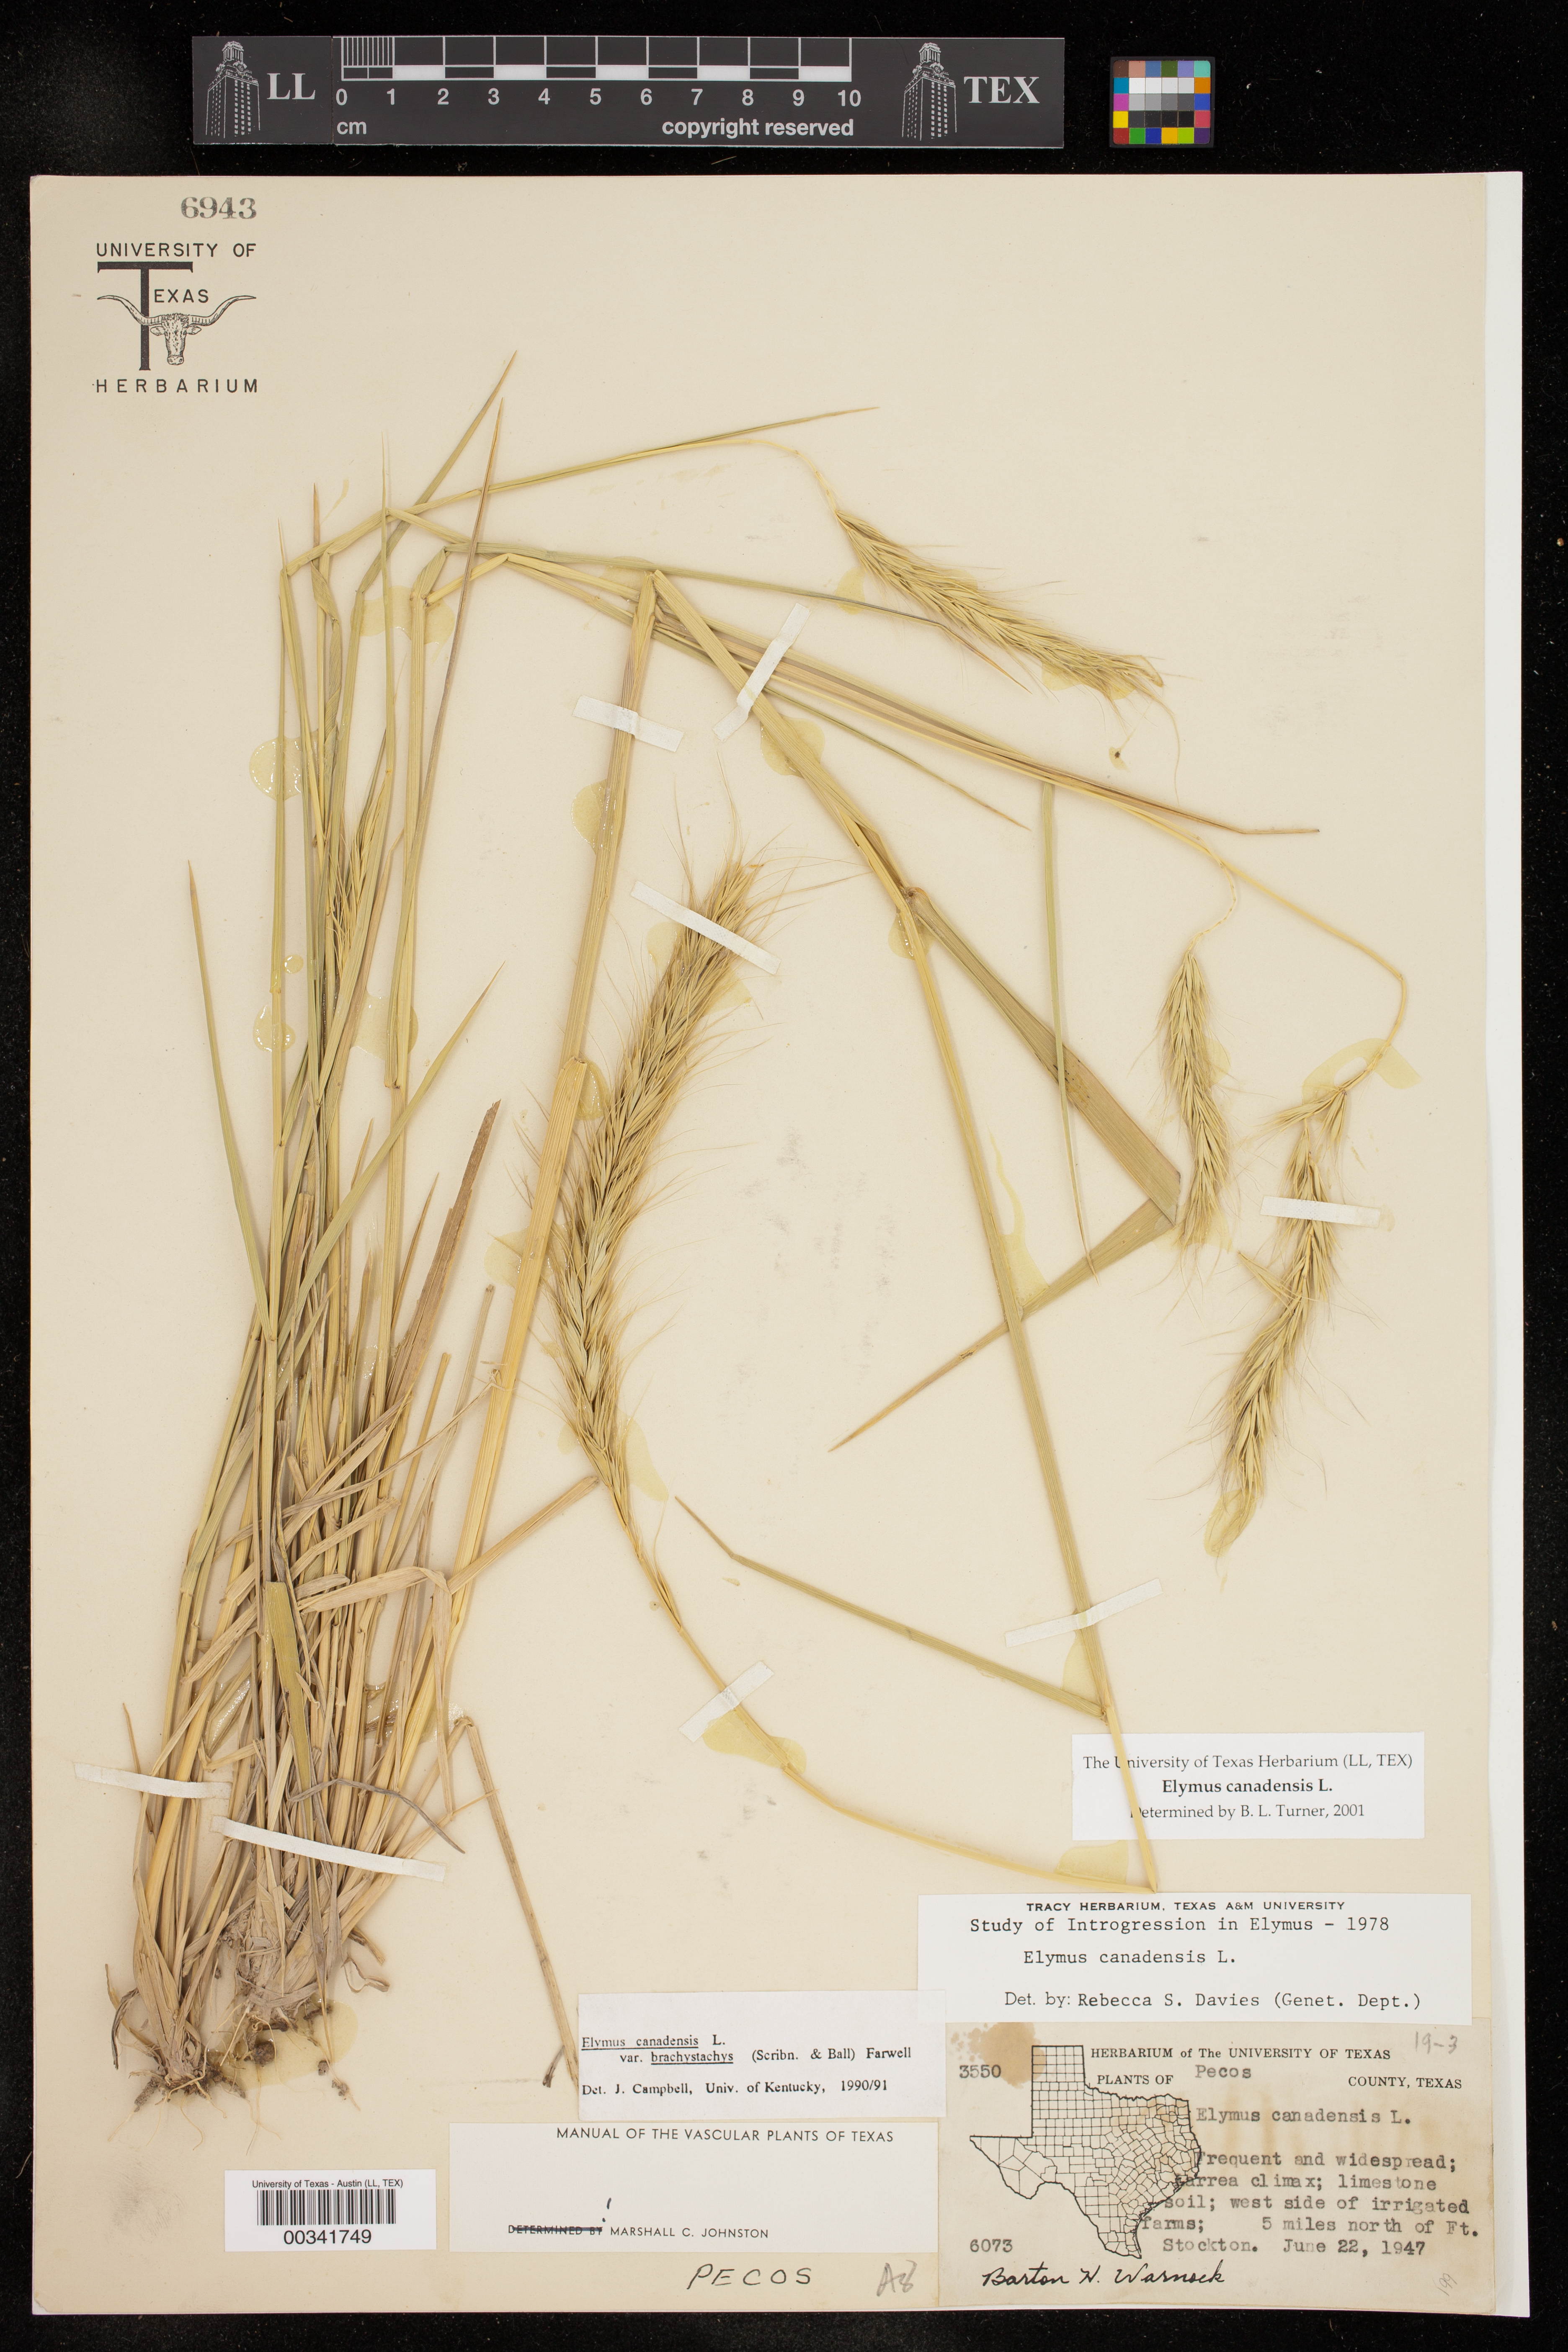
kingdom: Plantae
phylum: Tracheophyta
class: Liliopsida
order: Poales
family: Poaceae
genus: Elymus
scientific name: Elymus canadensis
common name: Canada wild rye
